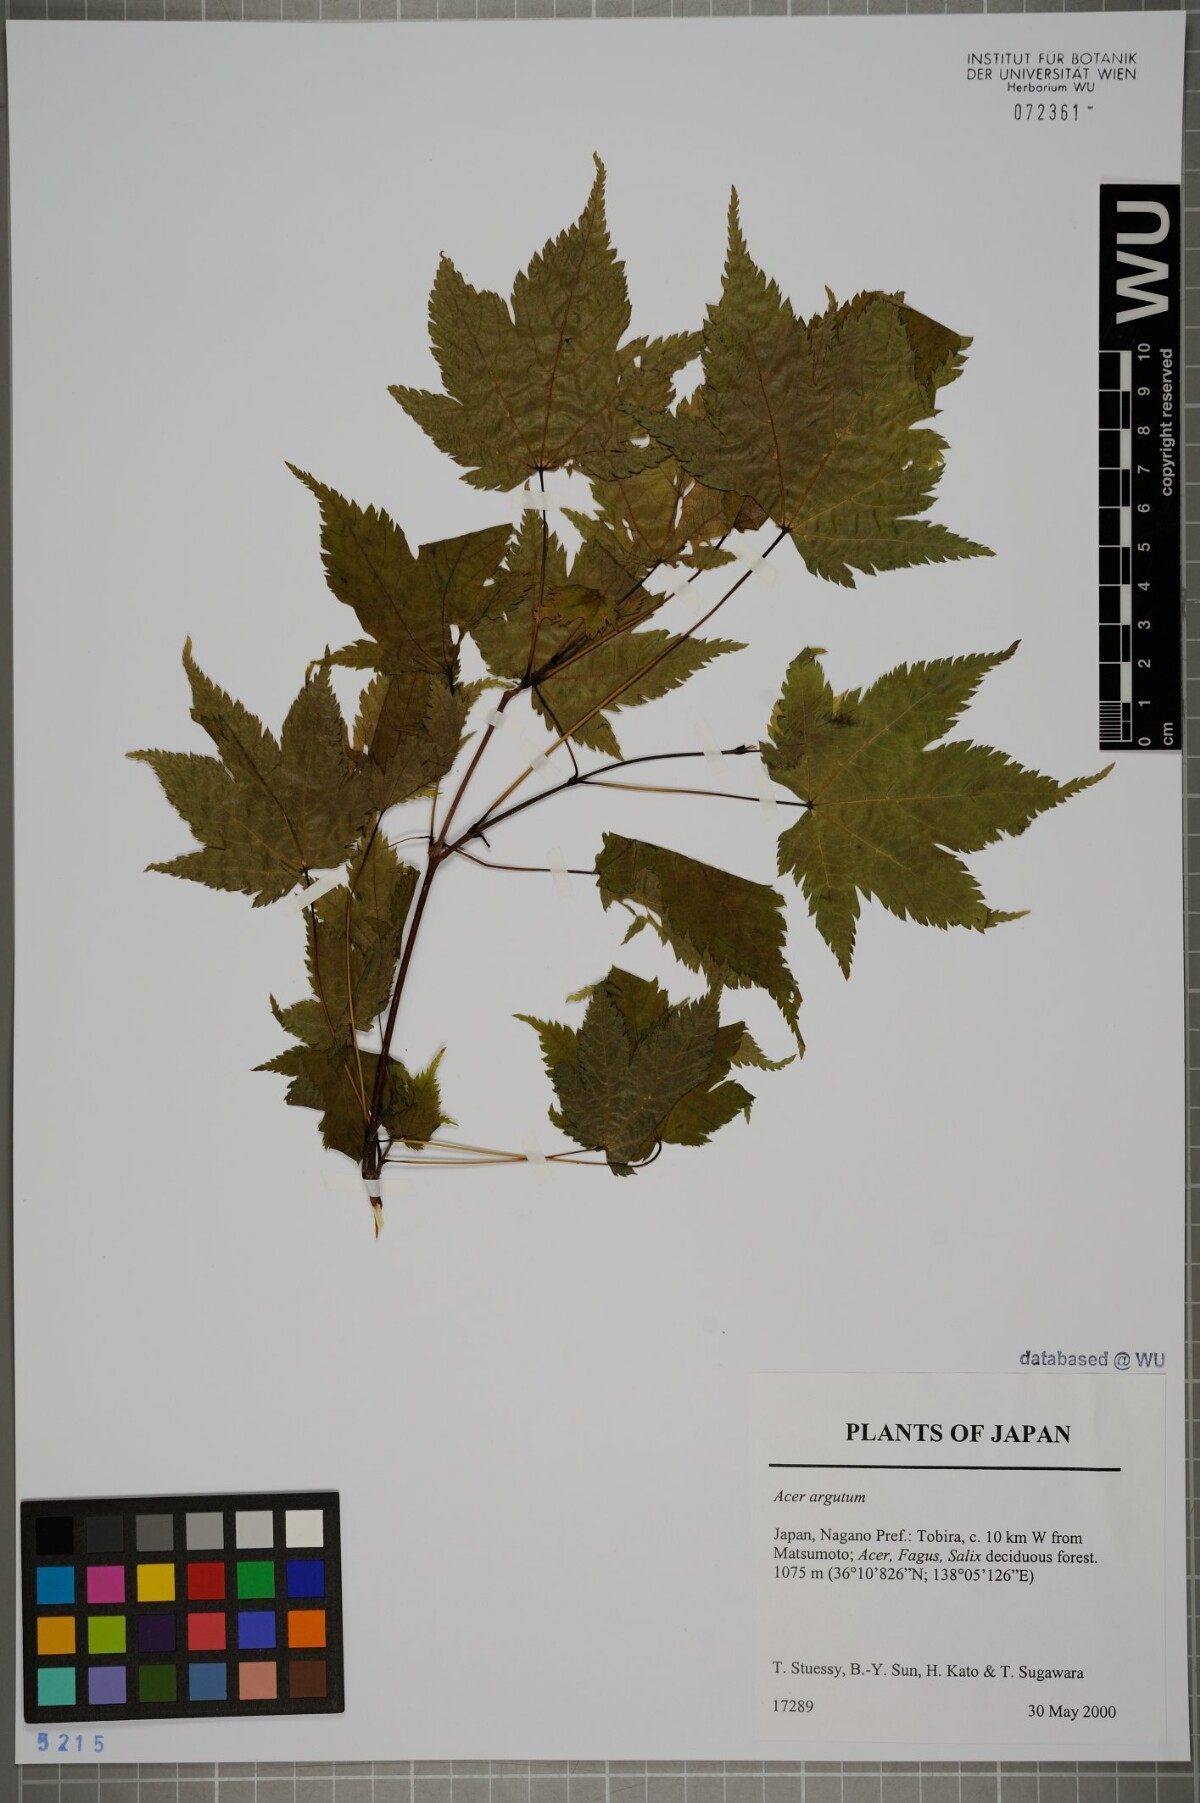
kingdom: Plantae
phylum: Tracheophyta
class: Magnoliopsida
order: Sapindales
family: Sapindaceae
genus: Acer
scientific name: Acer argutum
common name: Pointed-leaf maple
